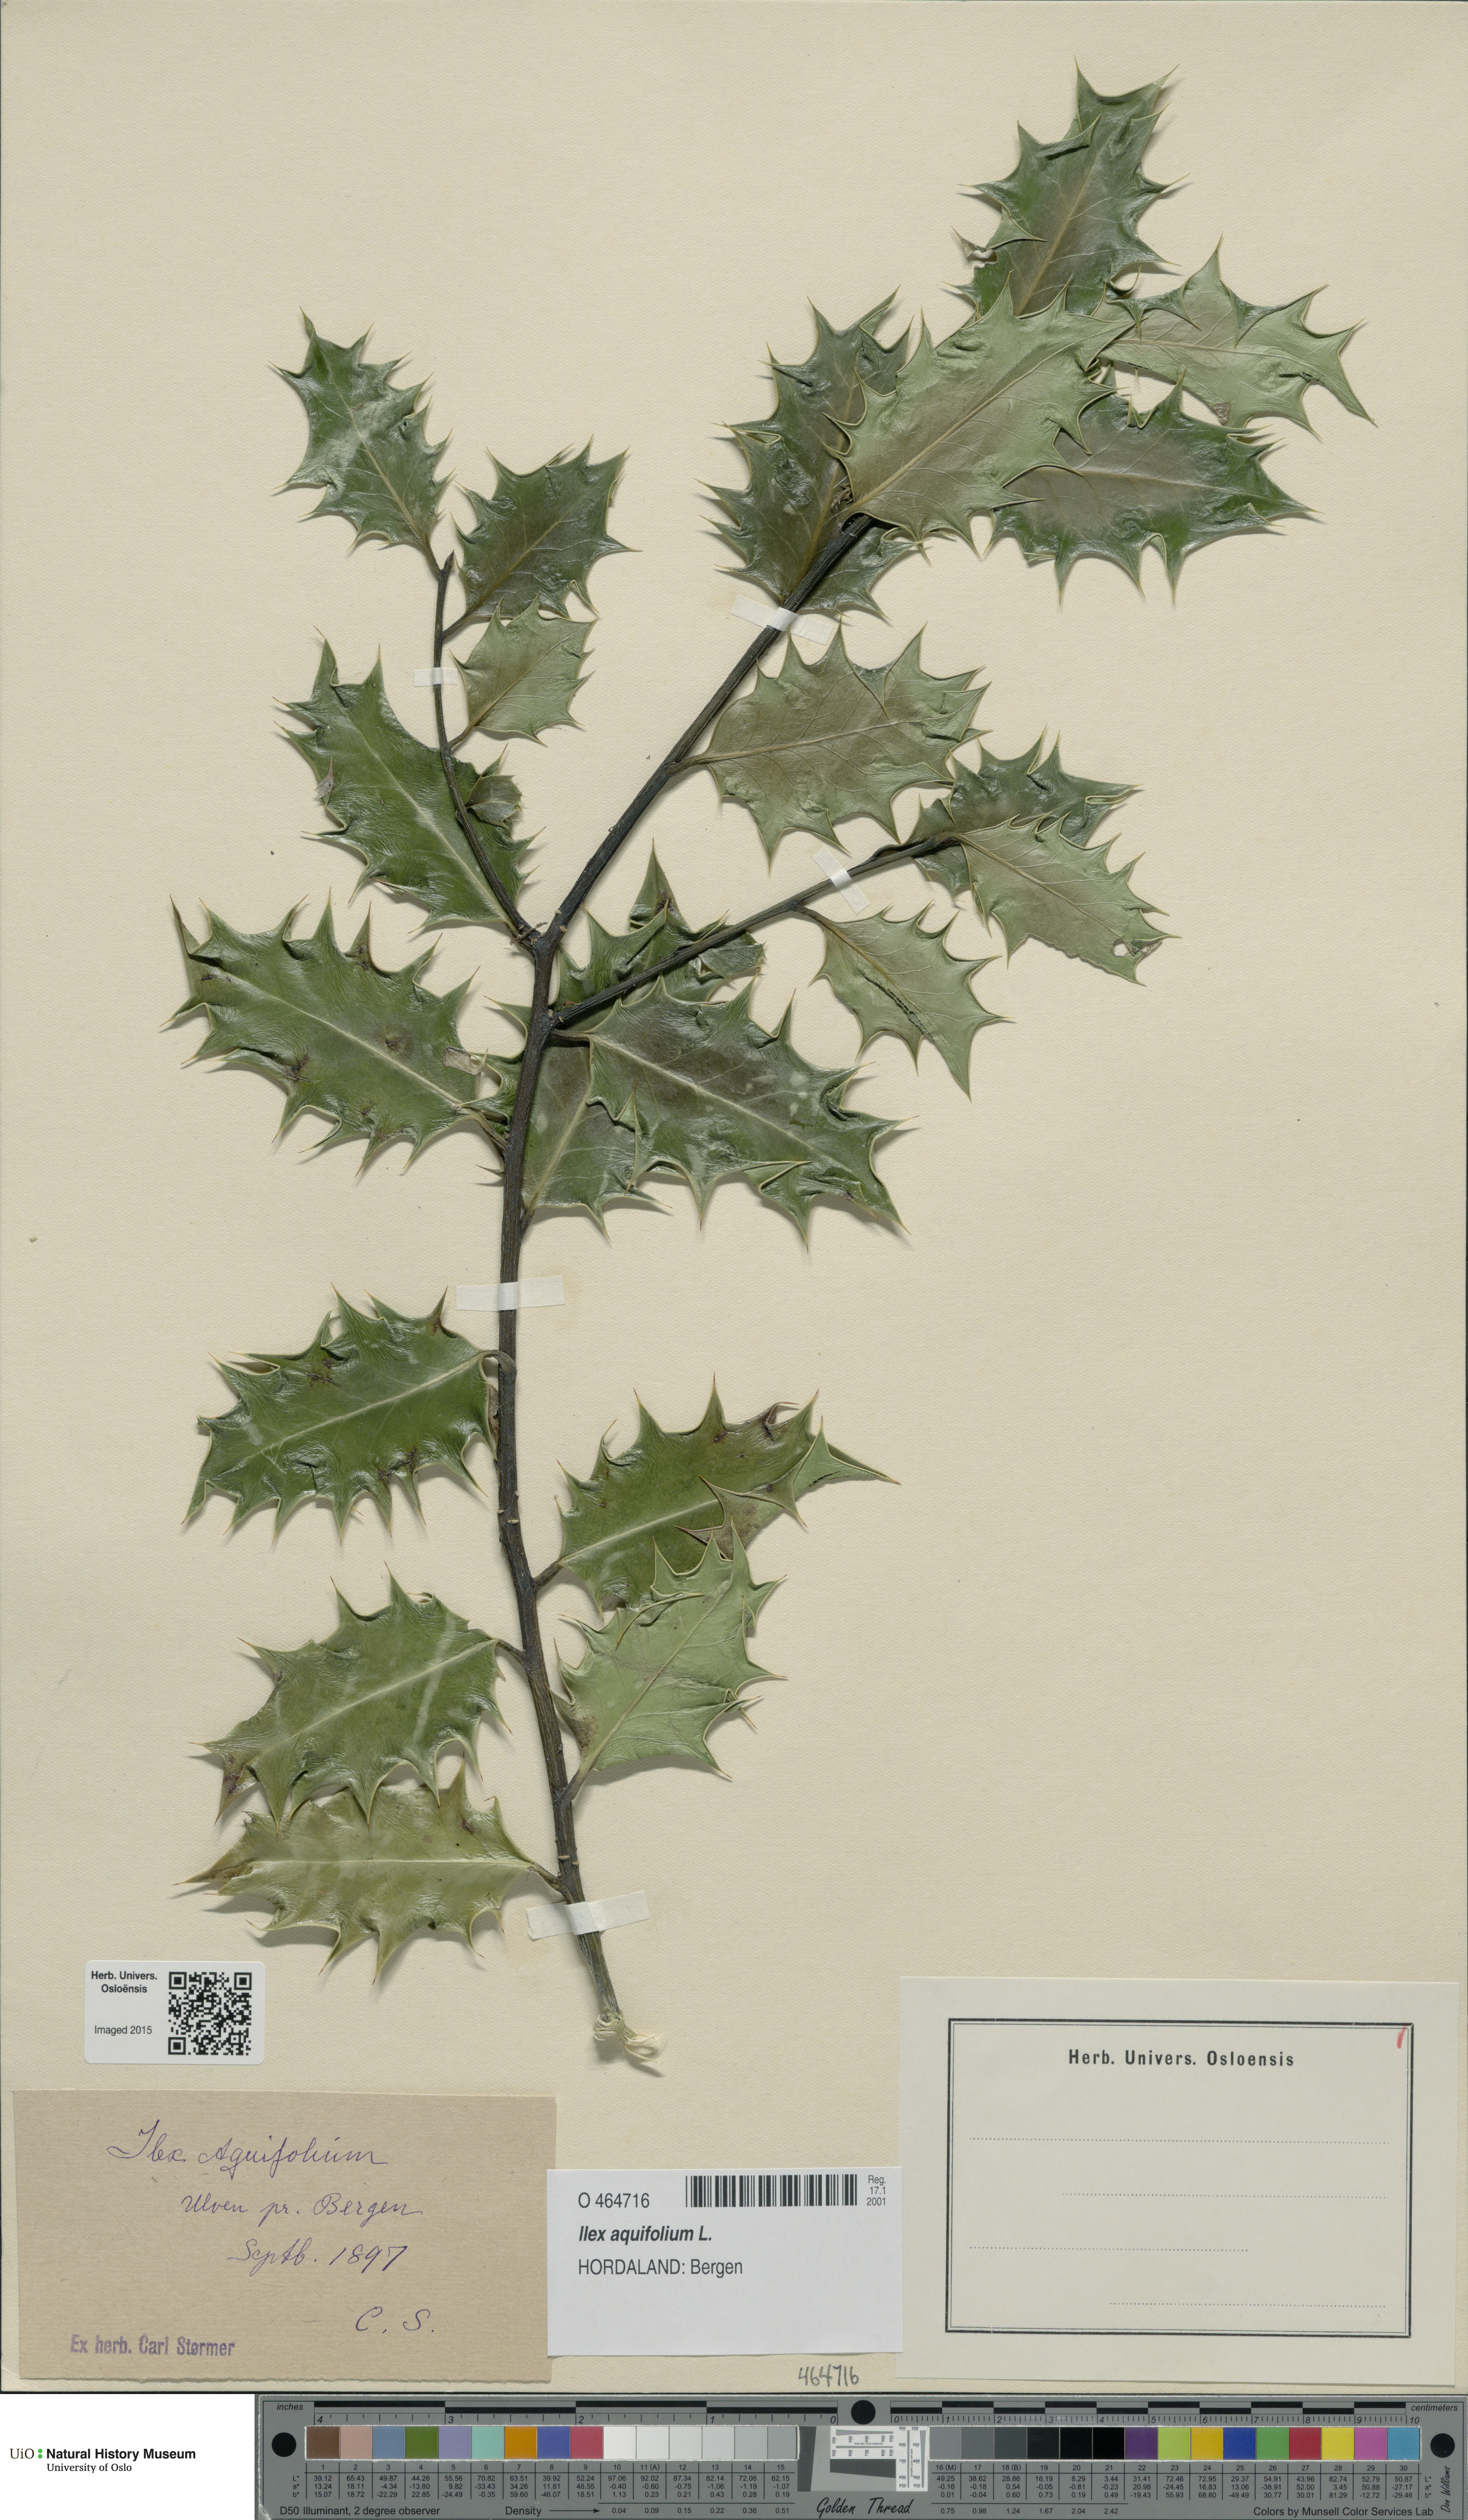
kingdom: Plantae
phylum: Tracheophyta
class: Magnoliopsida
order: Aquifoliales
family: Aquifoliaceae
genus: Ilex
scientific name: Ilex aquifolium
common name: English holly
